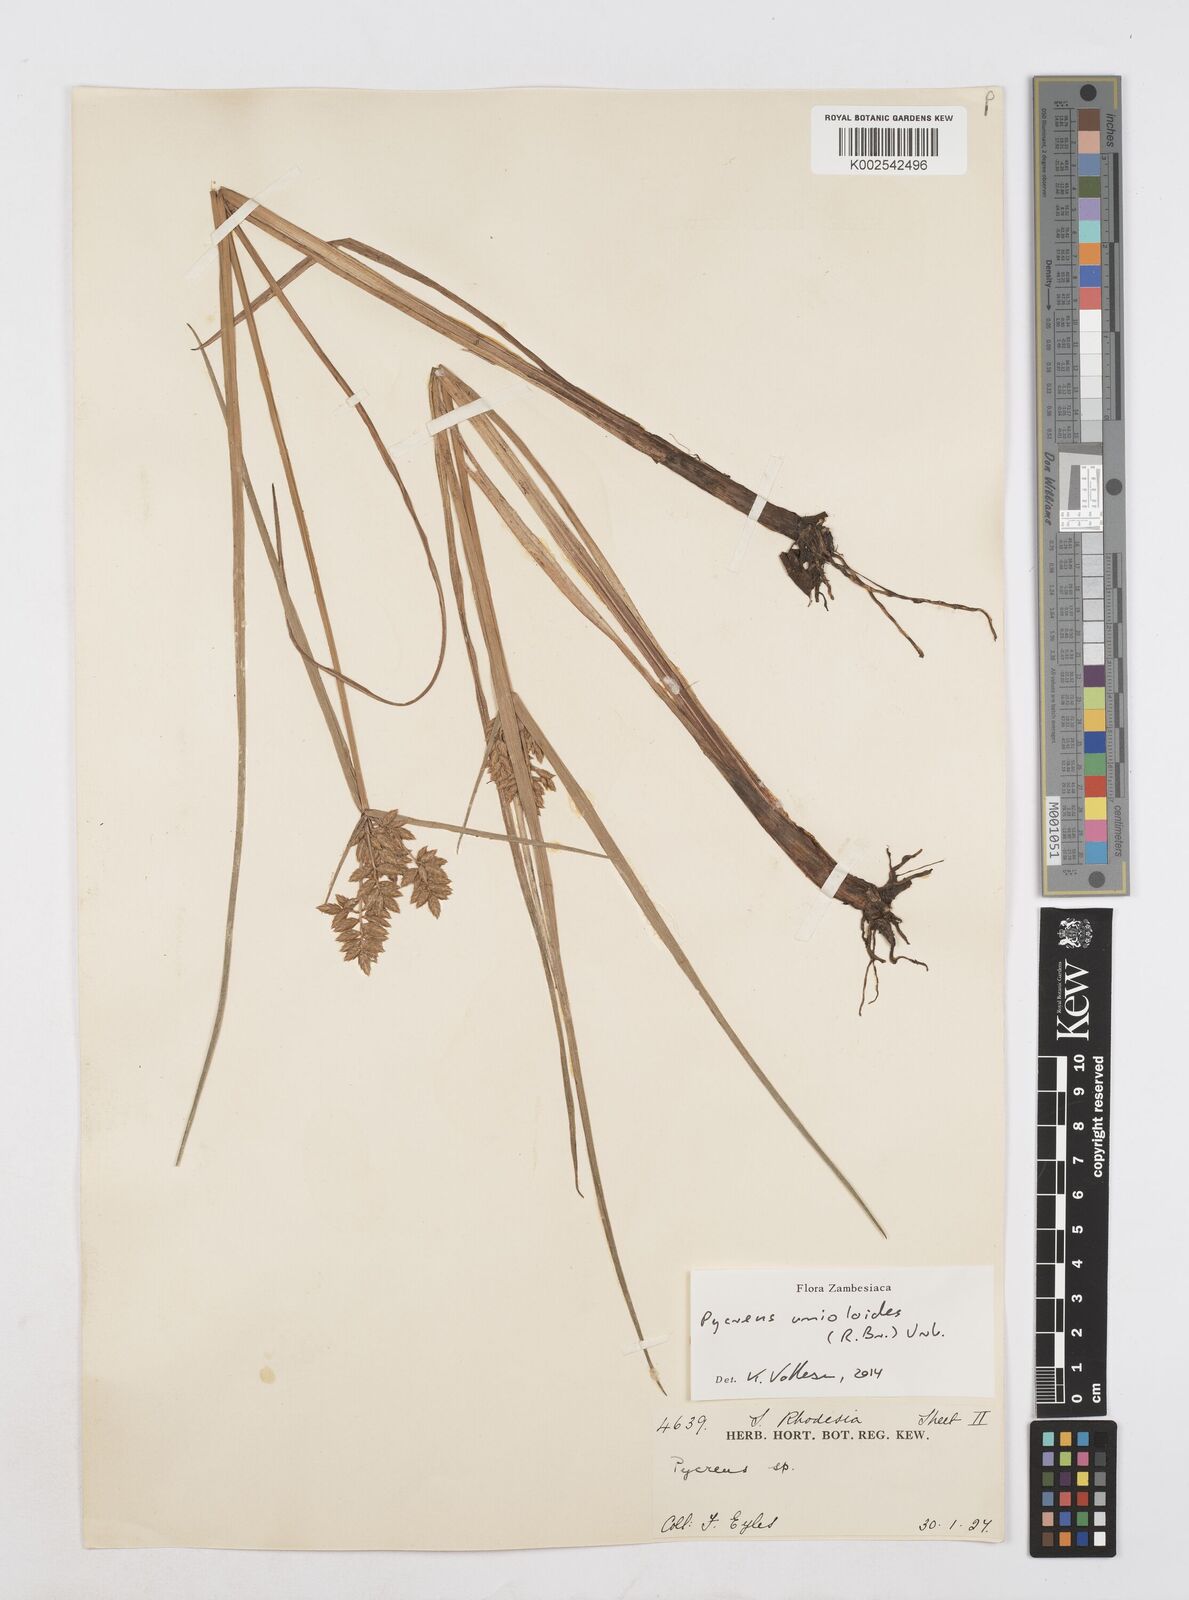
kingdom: Plantae
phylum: Tracheophyta
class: Liliopsida
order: Poales
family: Cyperaceae
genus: Cyperus
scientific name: Cyperus unioloides
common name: Uniola flatsedge
